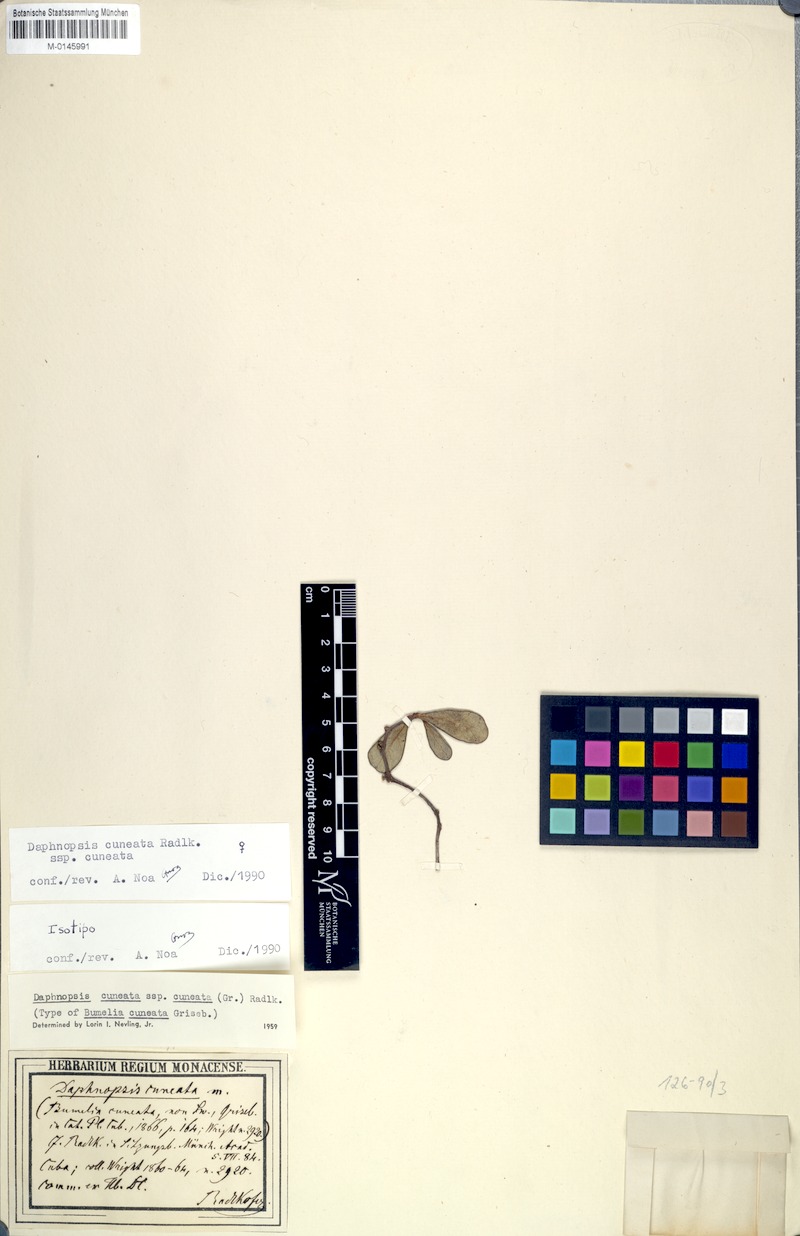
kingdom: Plantae
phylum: Tracheophyta
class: Magnoliopsida
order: Malvales
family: Thymelaeaceae
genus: Daphnopsis
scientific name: Daphnopsis cuneata
